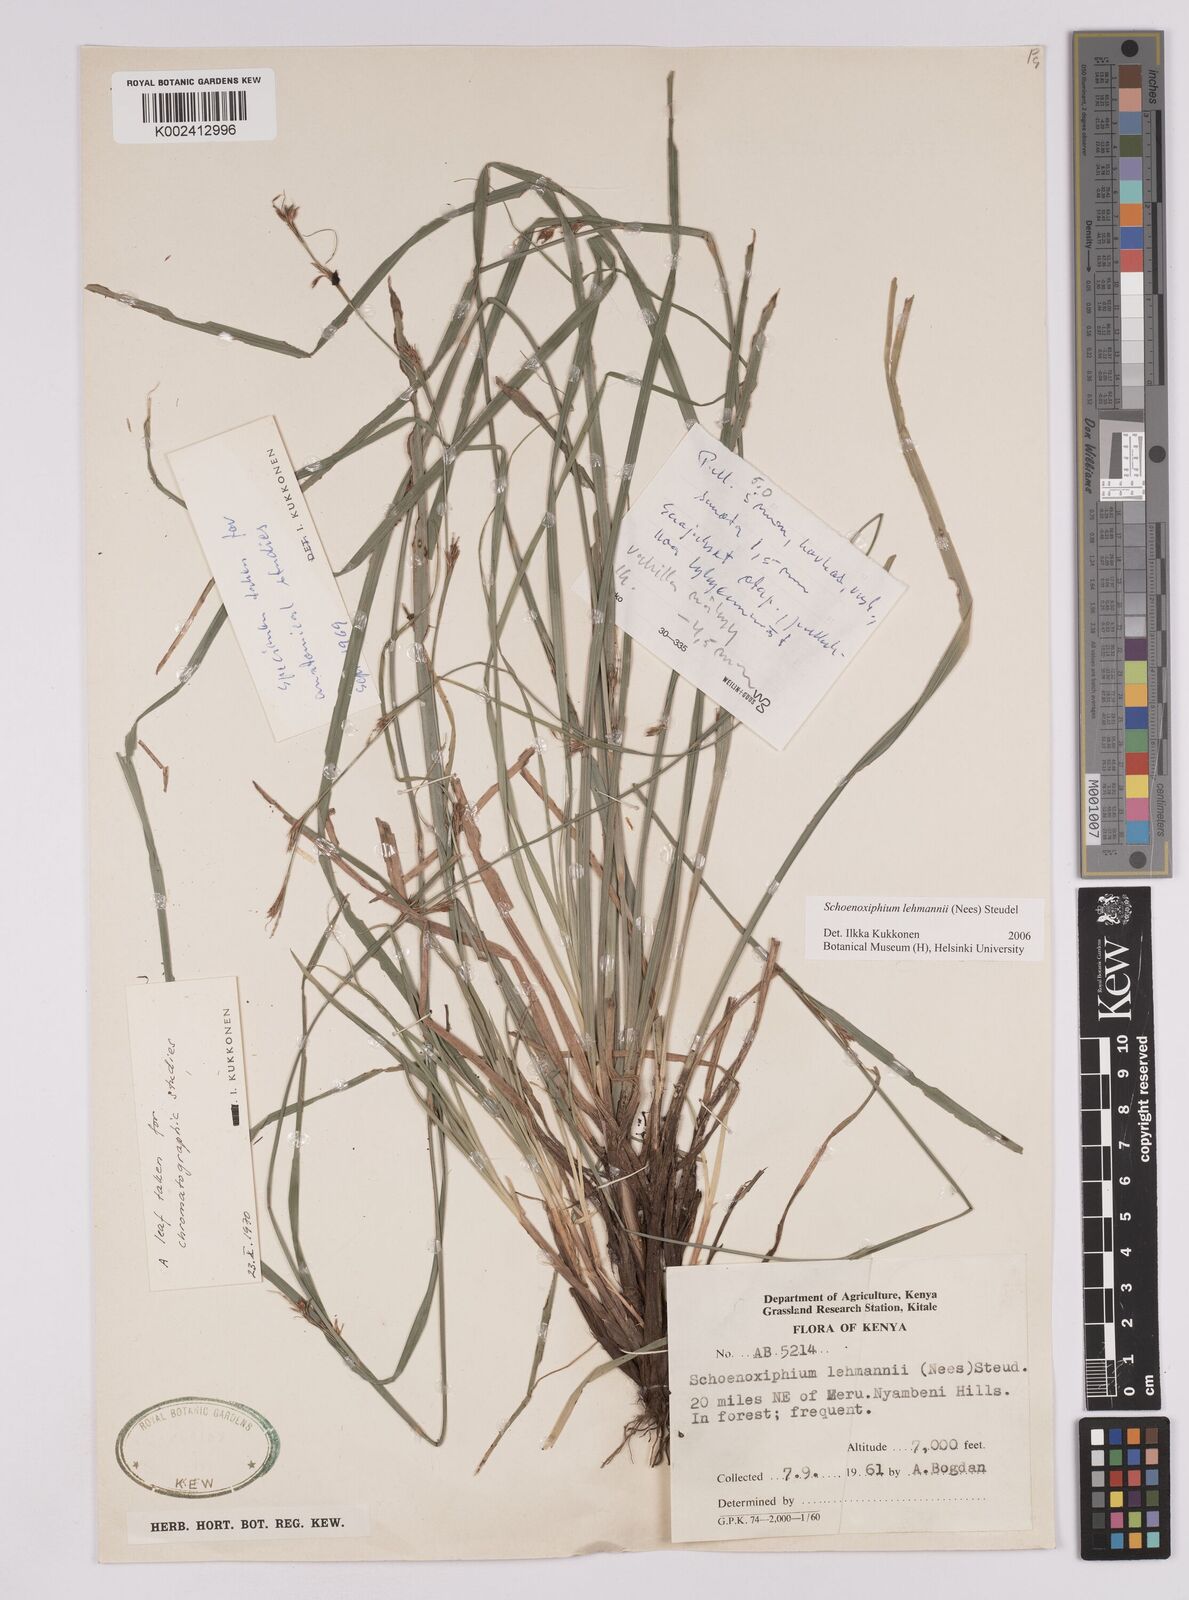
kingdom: Plantae
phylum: Tracheophyta
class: Liliopsida
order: Poales
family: Cyperaceae
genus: Carex
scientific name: Carex uhligii
